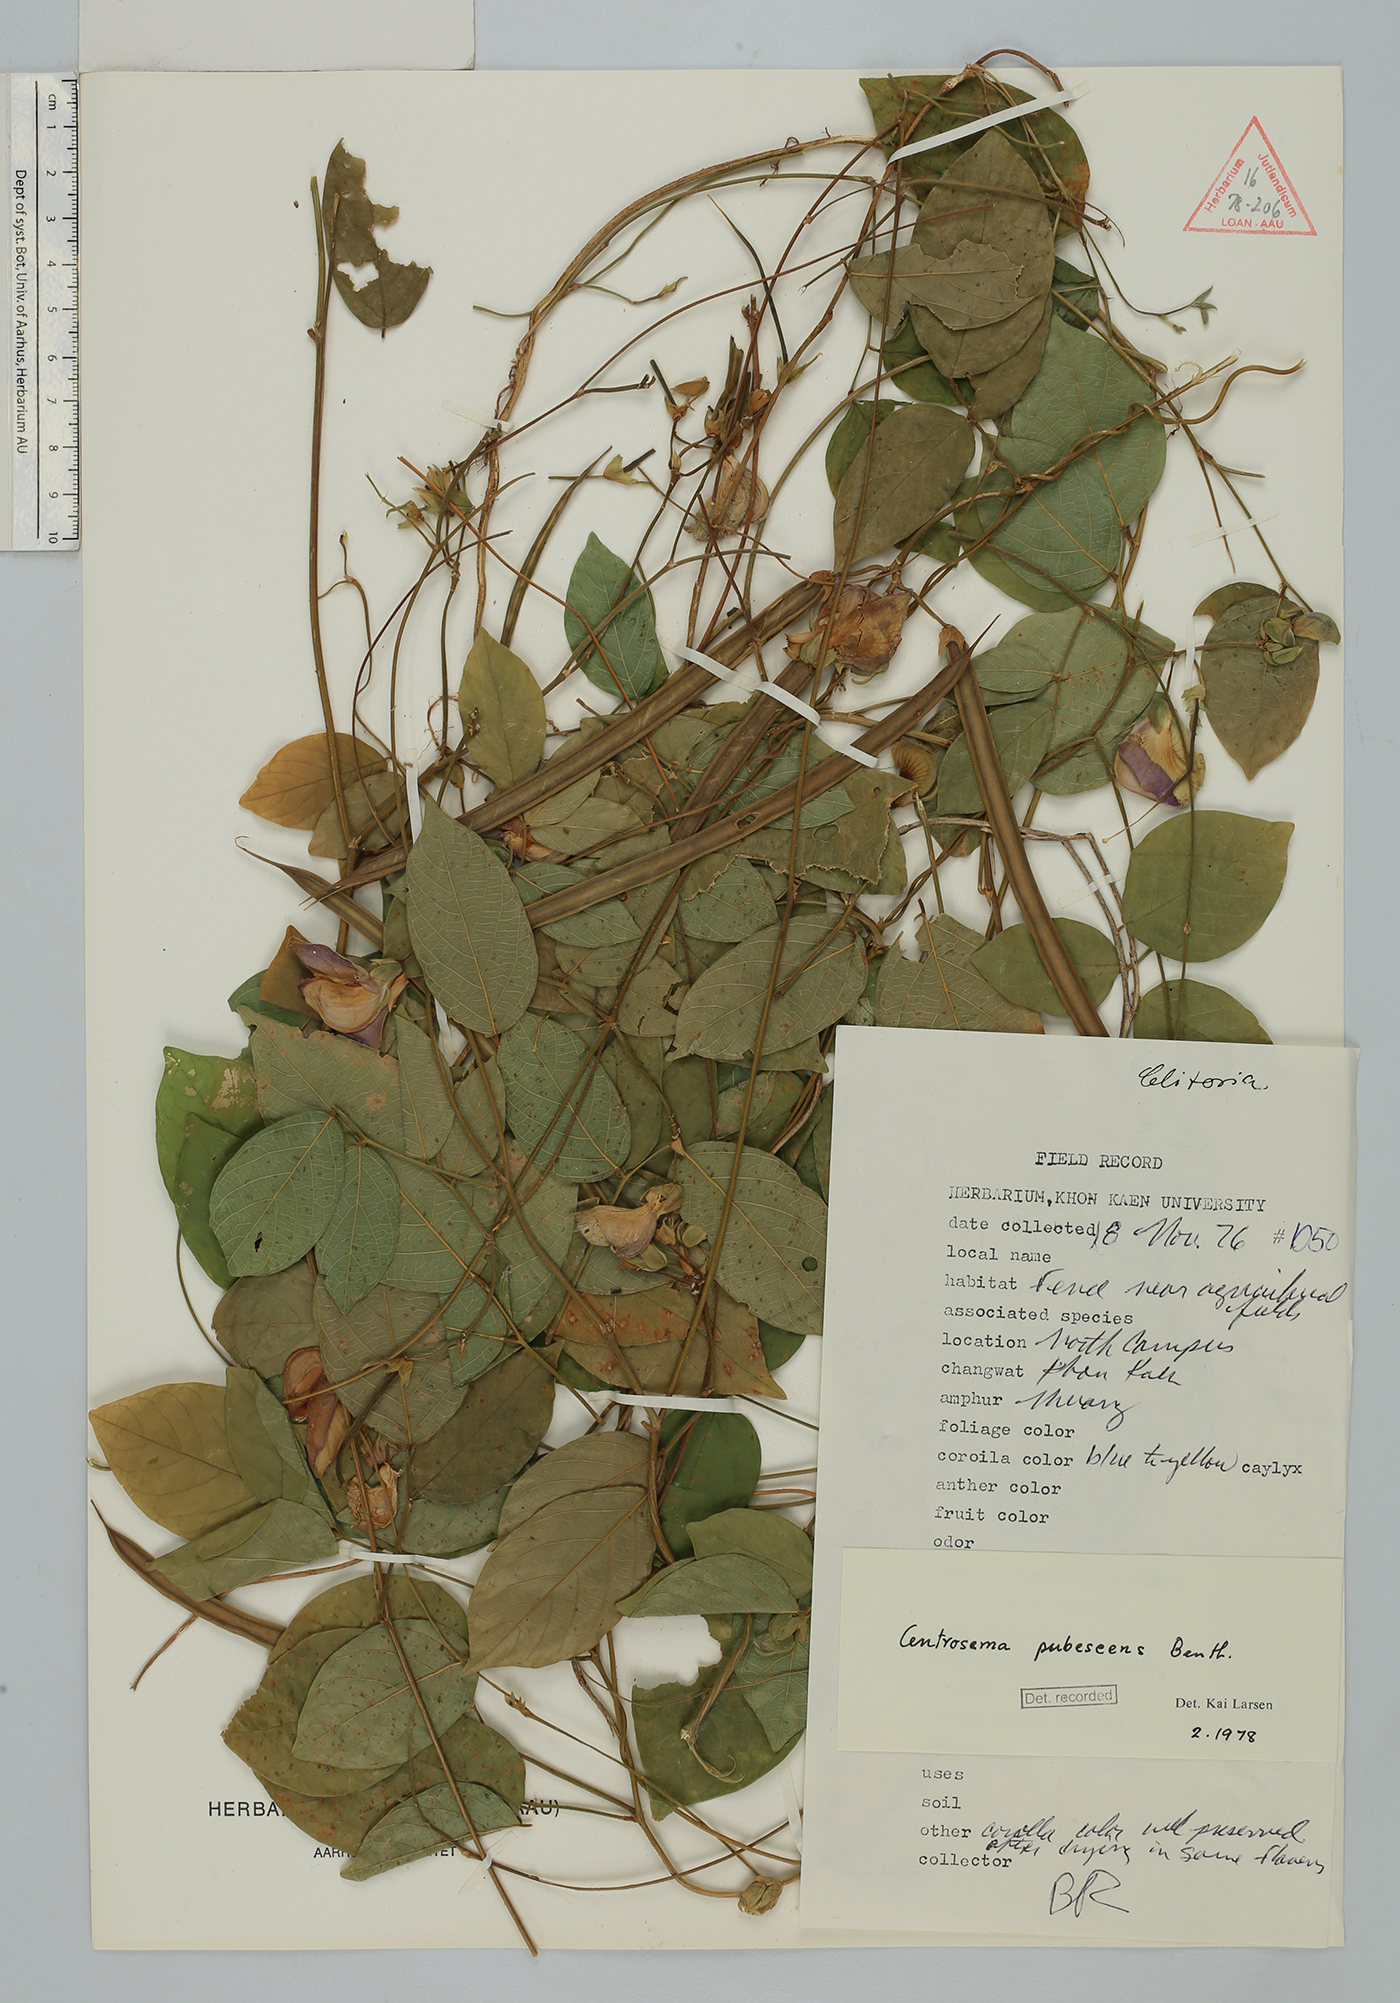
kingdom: Plantae
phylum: Tracheophyta
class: Magnoliopsida
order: Fabales
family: Fabaceae
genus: Centrosema
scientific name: Centrosema pubescens
